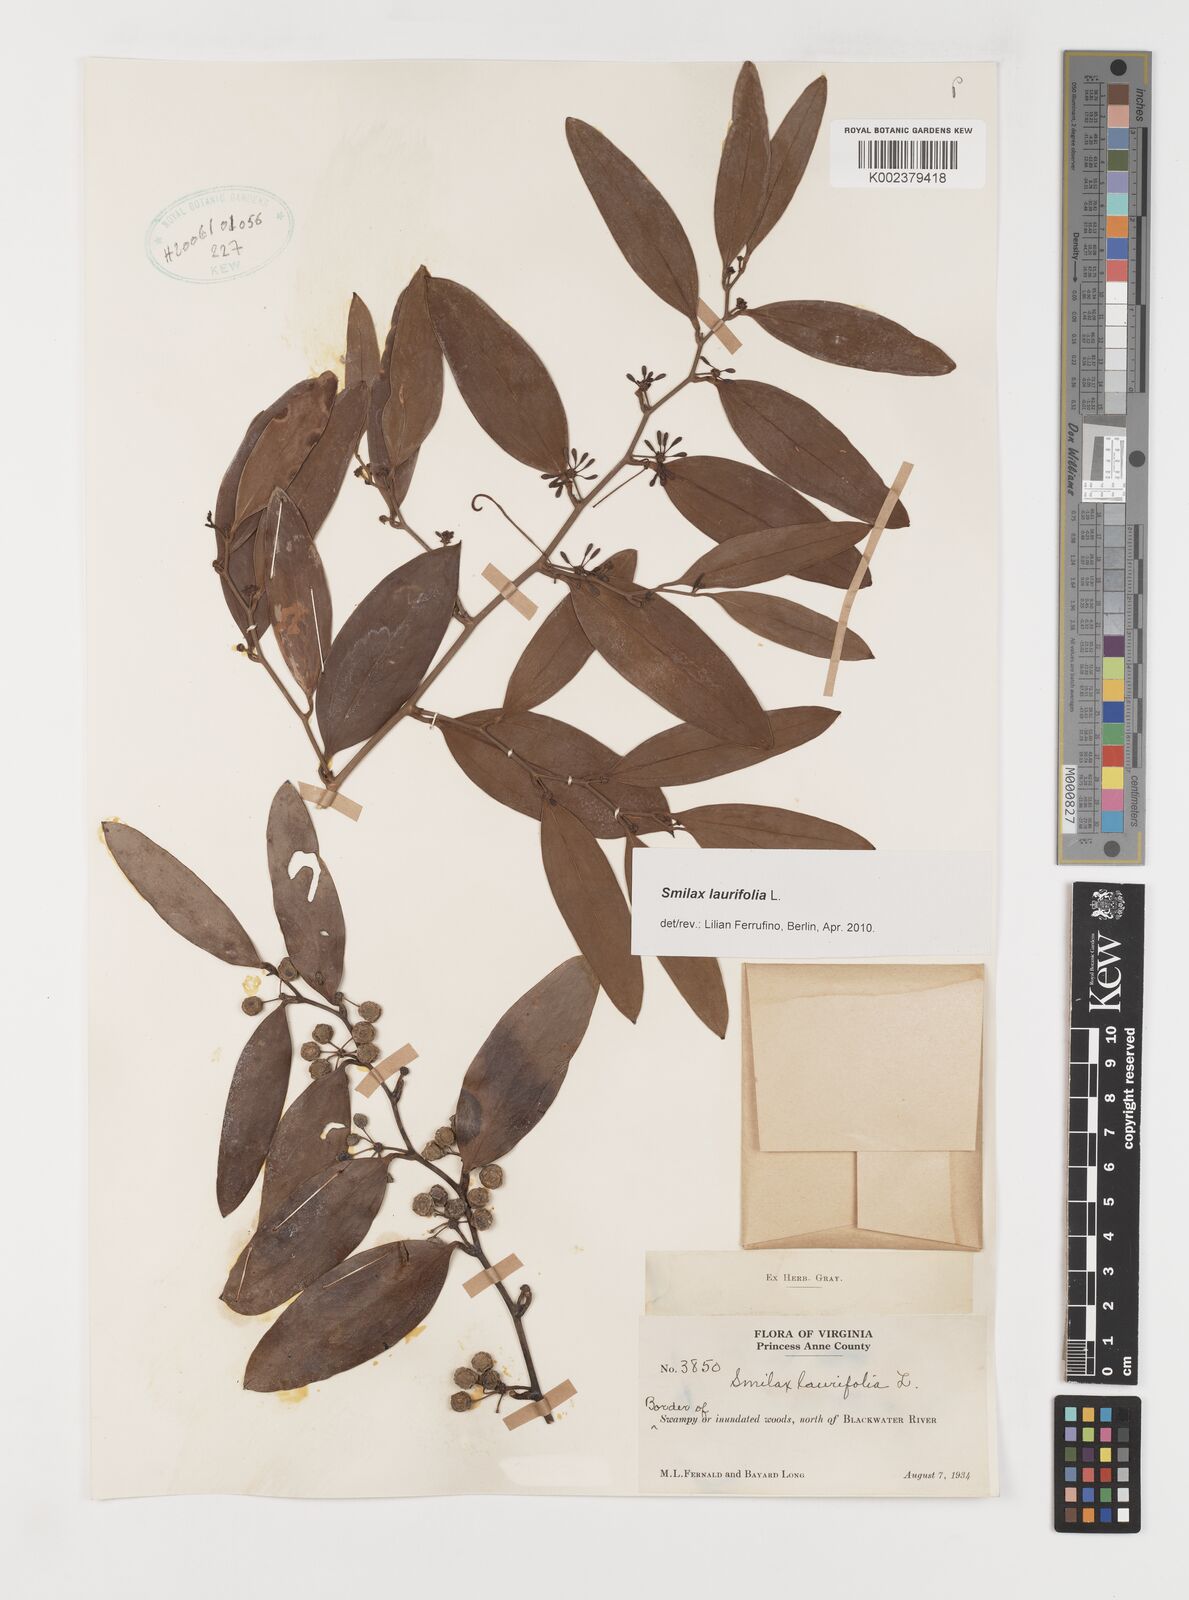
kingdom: Plantae
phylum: Tracheophyta
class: Liliopsida
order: Liliales
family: Smilacaceae
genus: Smilax
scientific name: Smilax laurifolia
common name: Bamboovine
